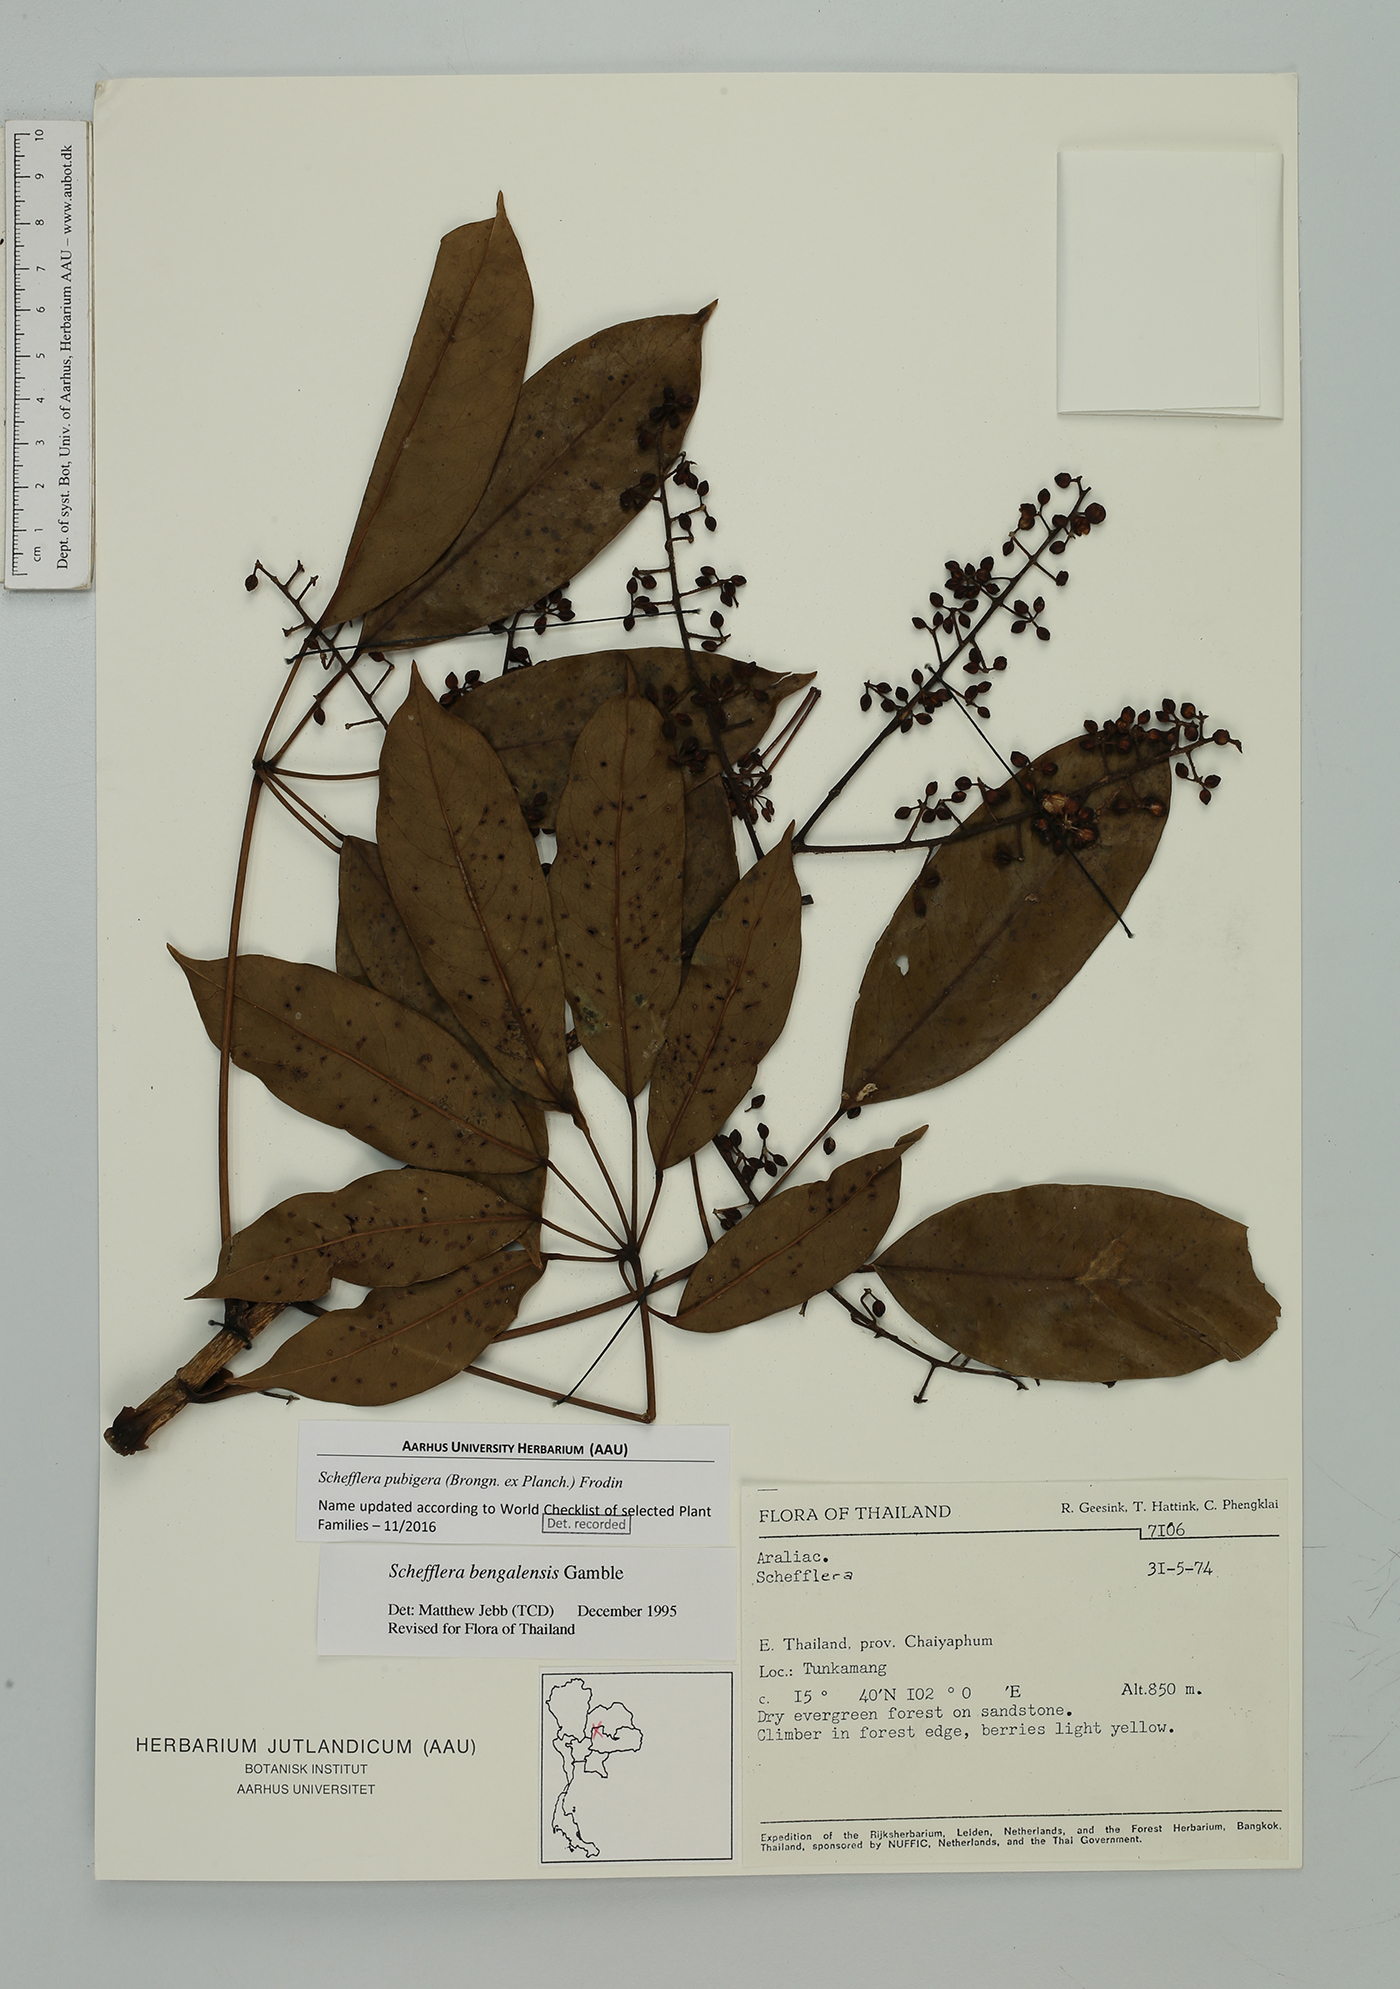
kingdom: Plantae
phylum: Tracheophyta
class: Magnoliopsida
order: Apiales
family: Araliaceae
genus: Heptapleurum
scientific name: Heptapleurum ellipticum
